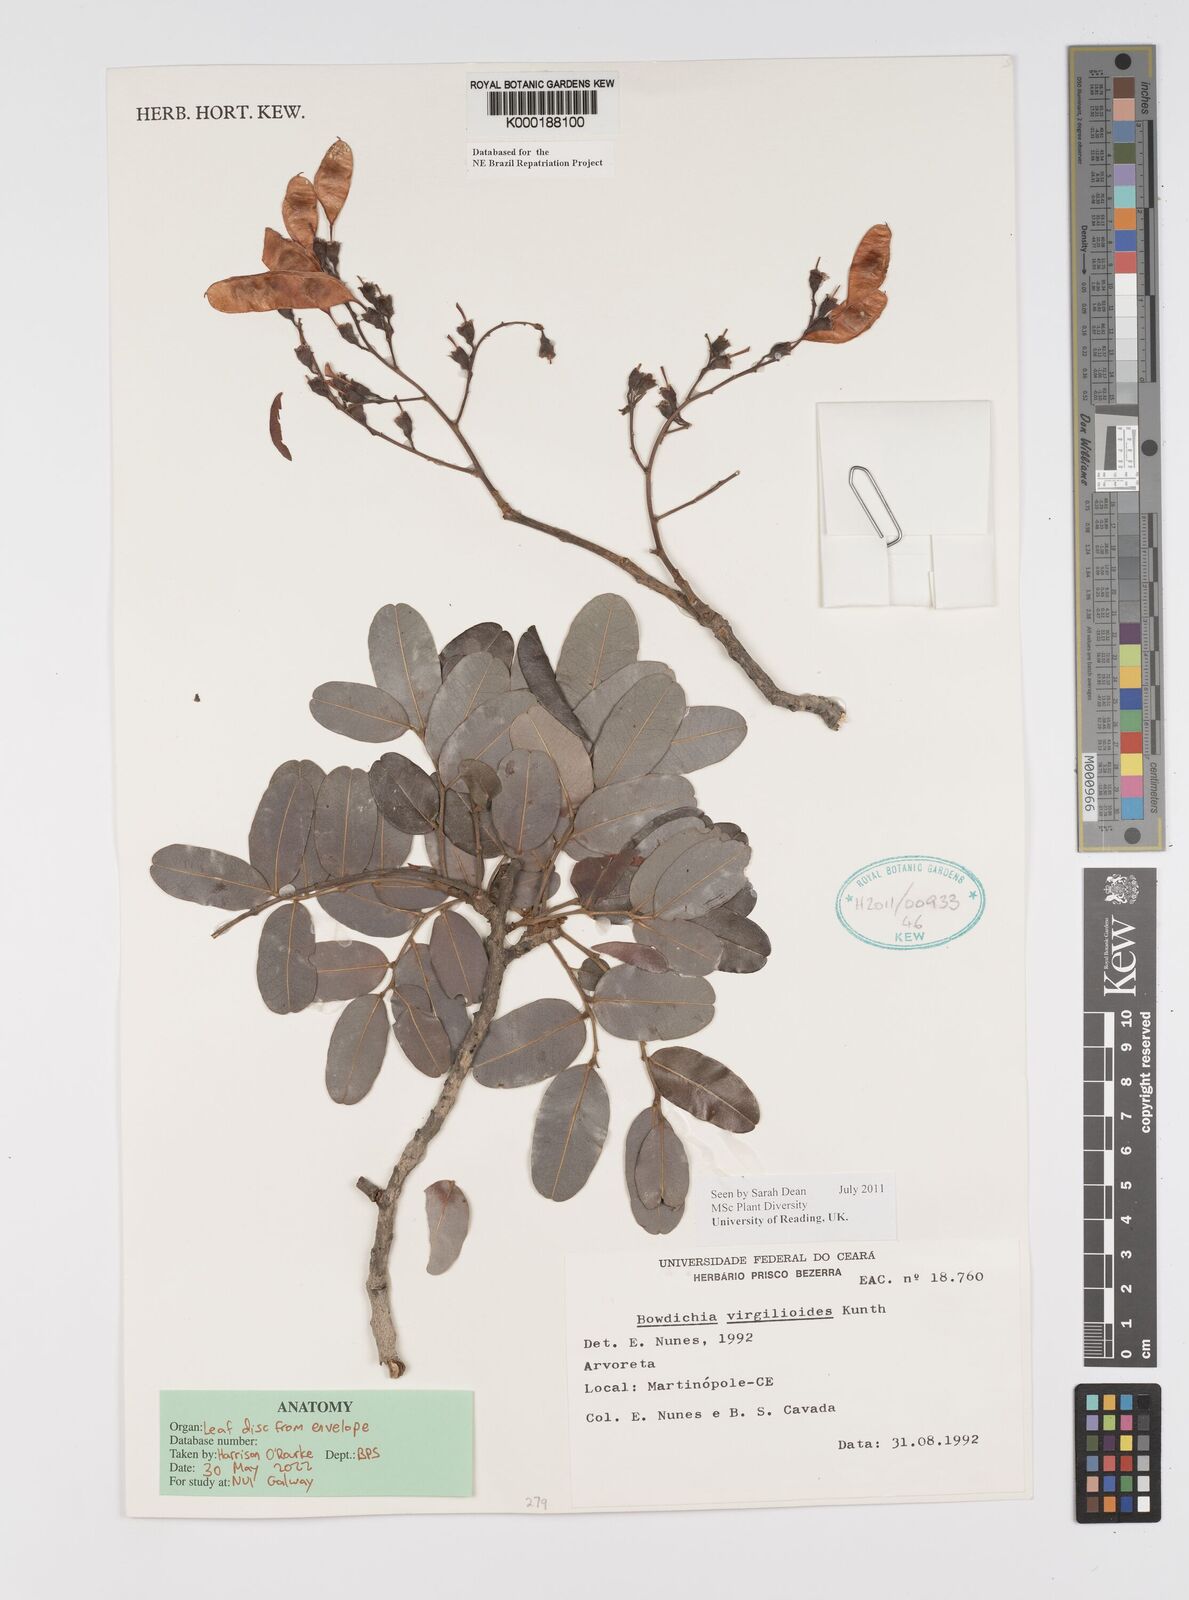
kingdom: Plantae
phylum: Tracheophyta
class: Magnoliopsida
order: Fabales
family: Fabaceae
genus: Bowdichia
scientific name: Bowdichia virgilioides
